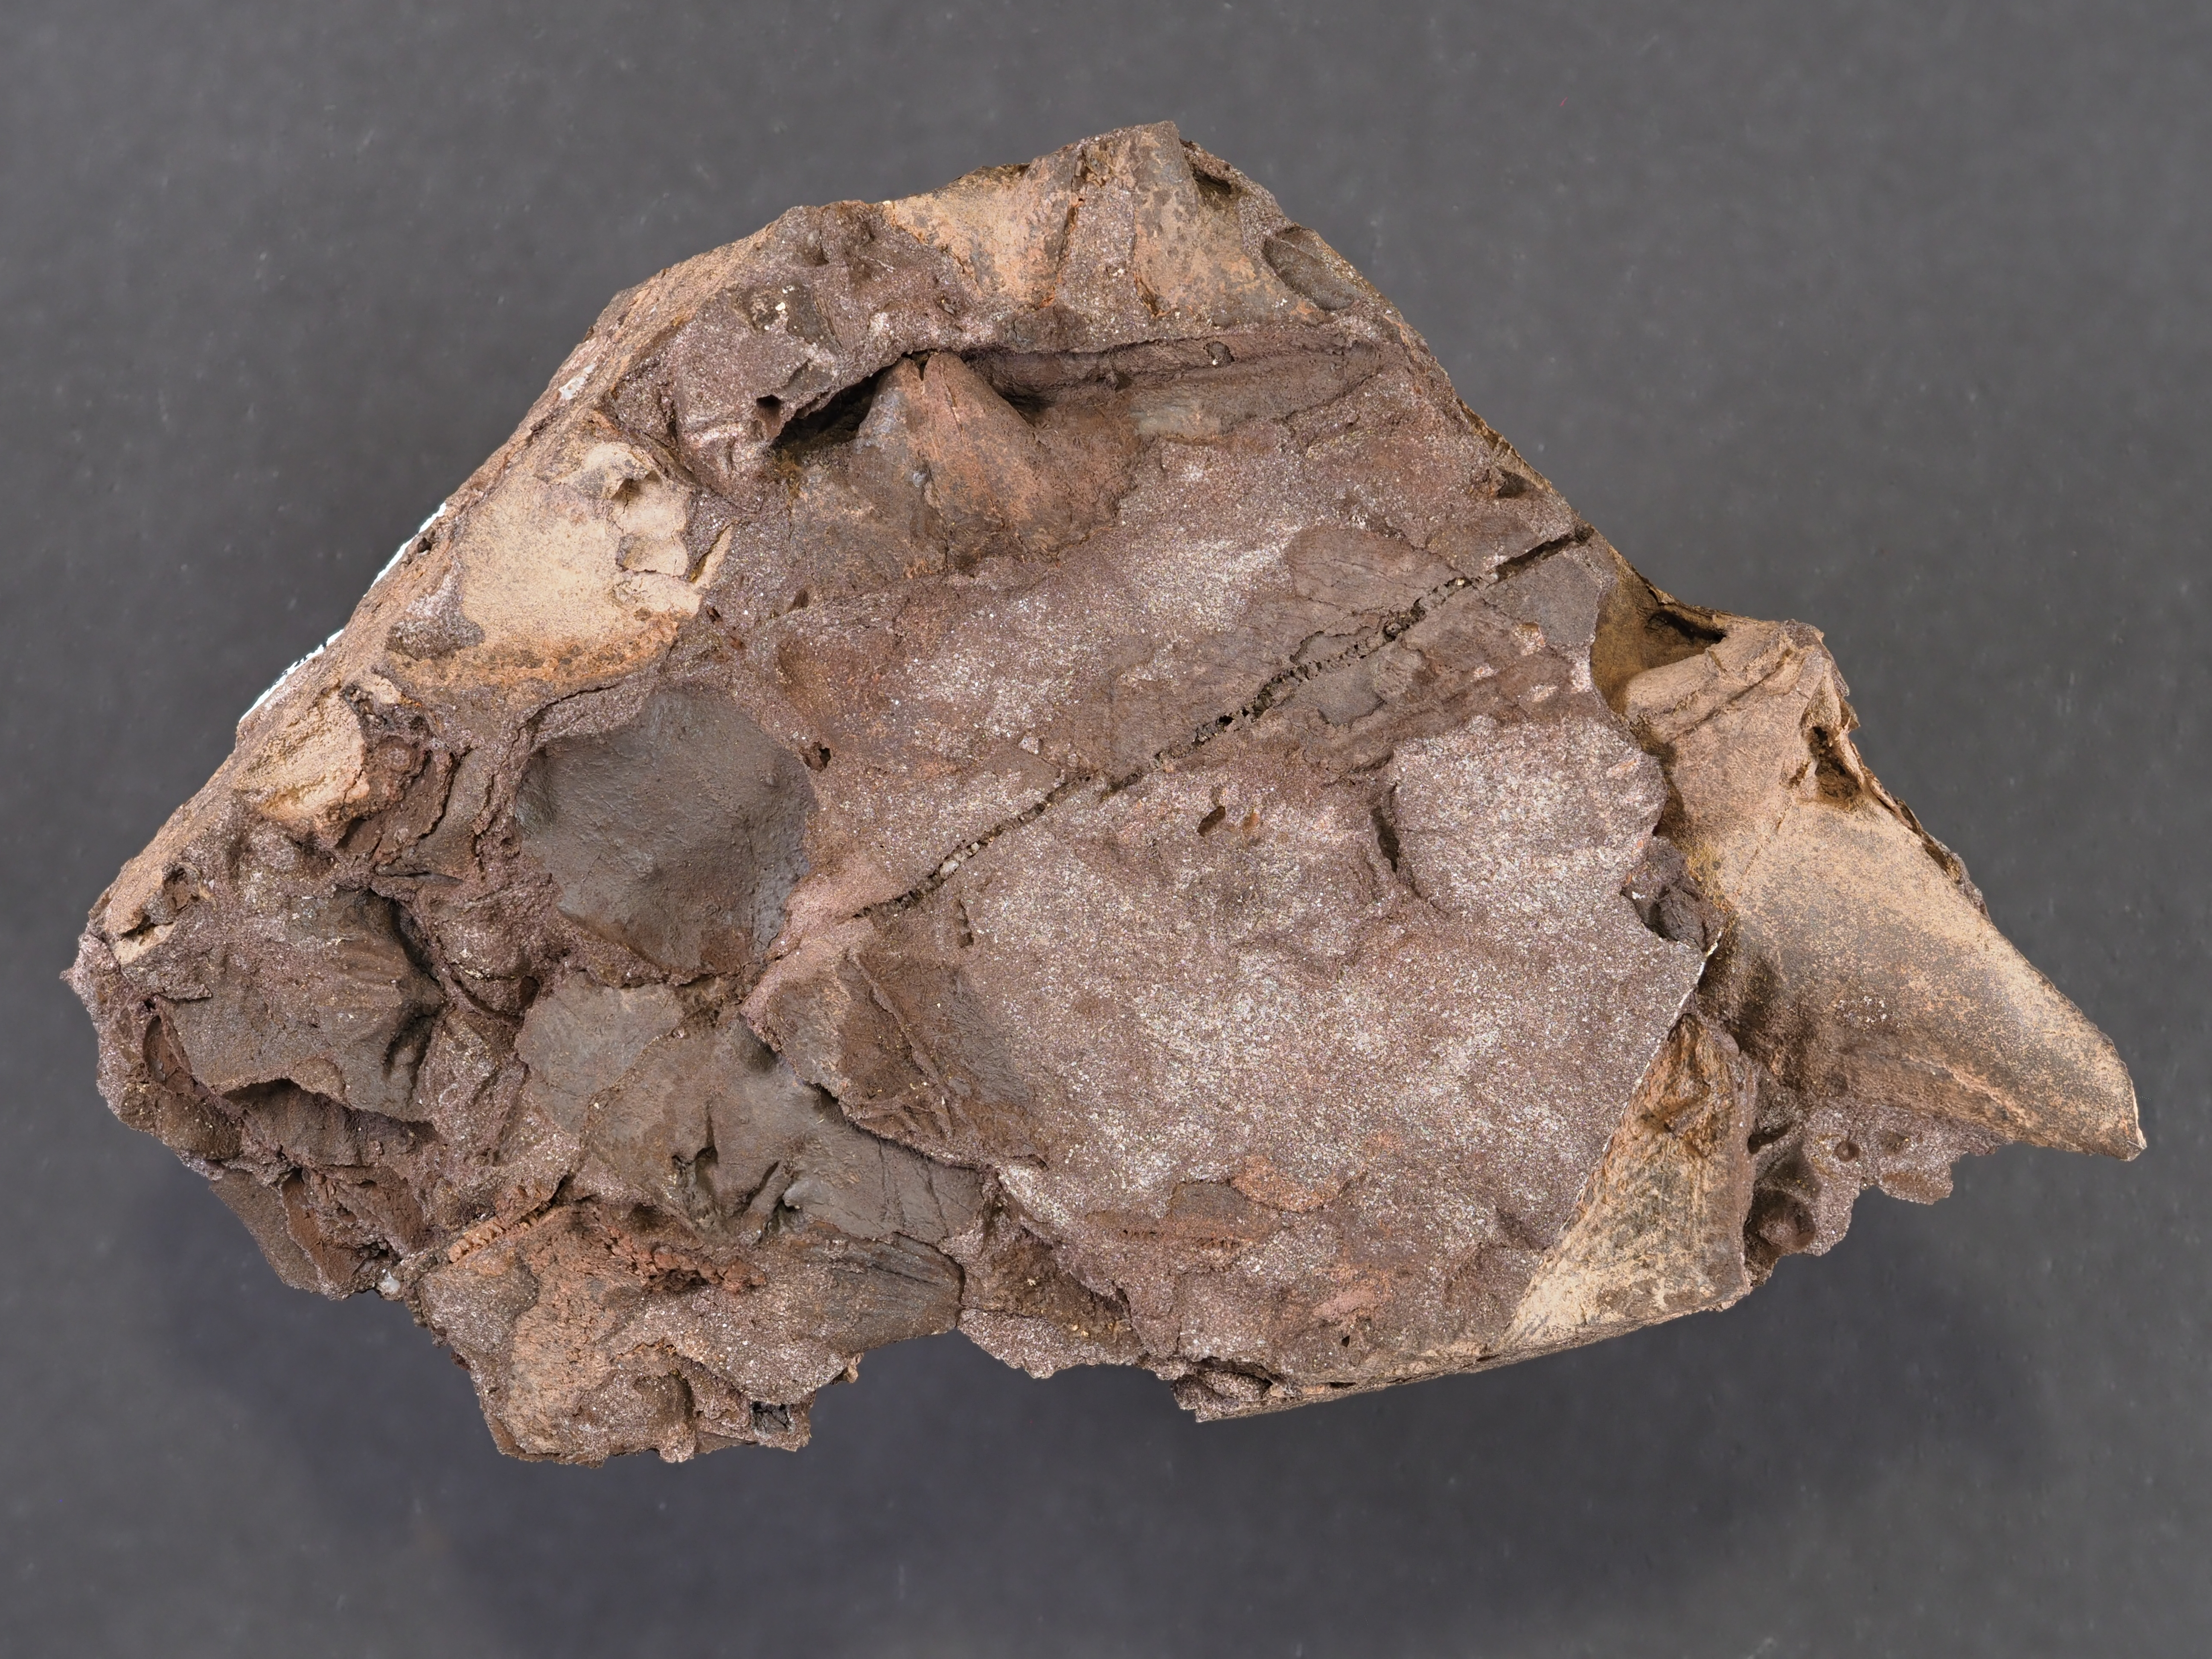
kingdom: Animalia
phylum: Brachiopoda
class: Rhynchonellata
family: Delthyrididae
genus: Euryspirifer
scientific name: Euryspirifer Spirifer assimilis
